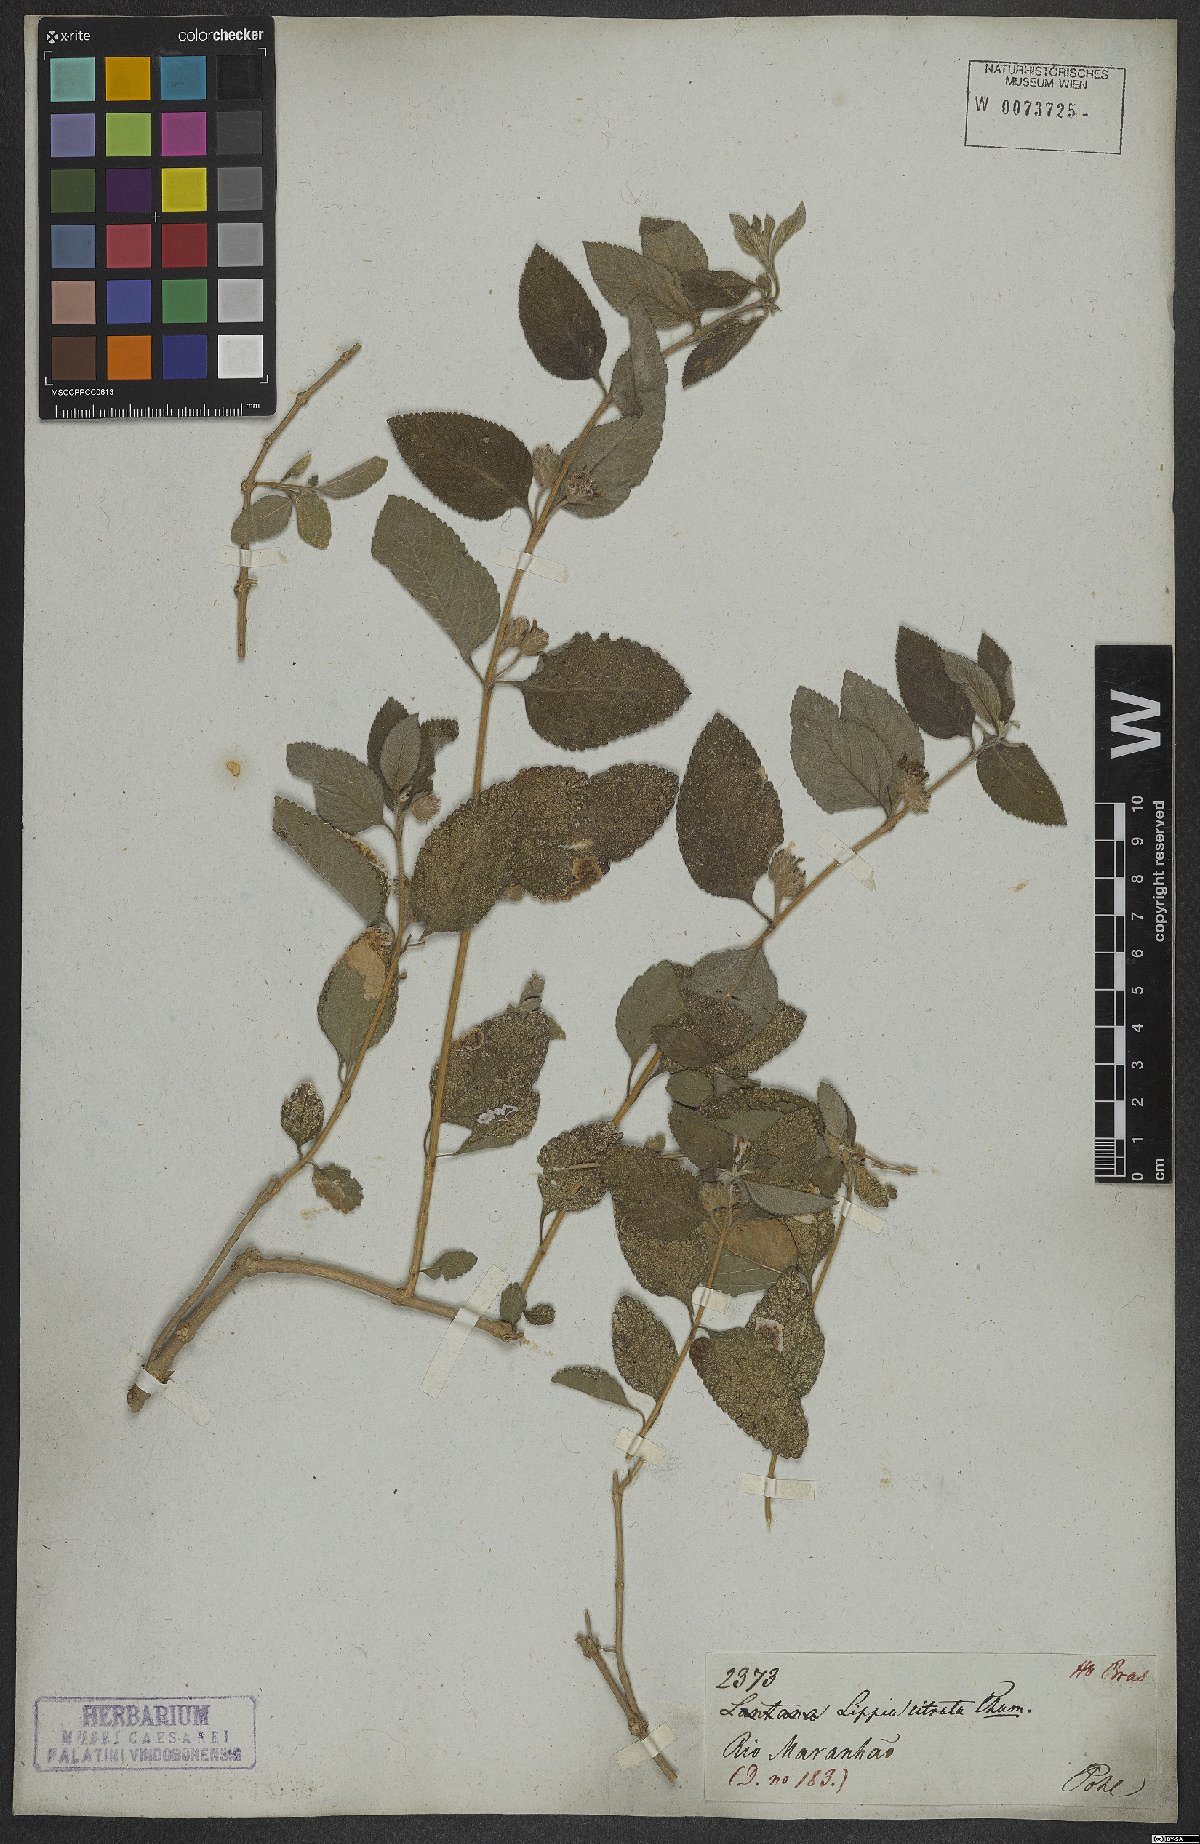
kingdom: Plantae
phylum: Tracheophyta
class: Magnoliopsida
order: Lamiales
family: Verbenaceae
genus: Lippia
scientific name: Lippia alba
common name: Bushy matgrass
